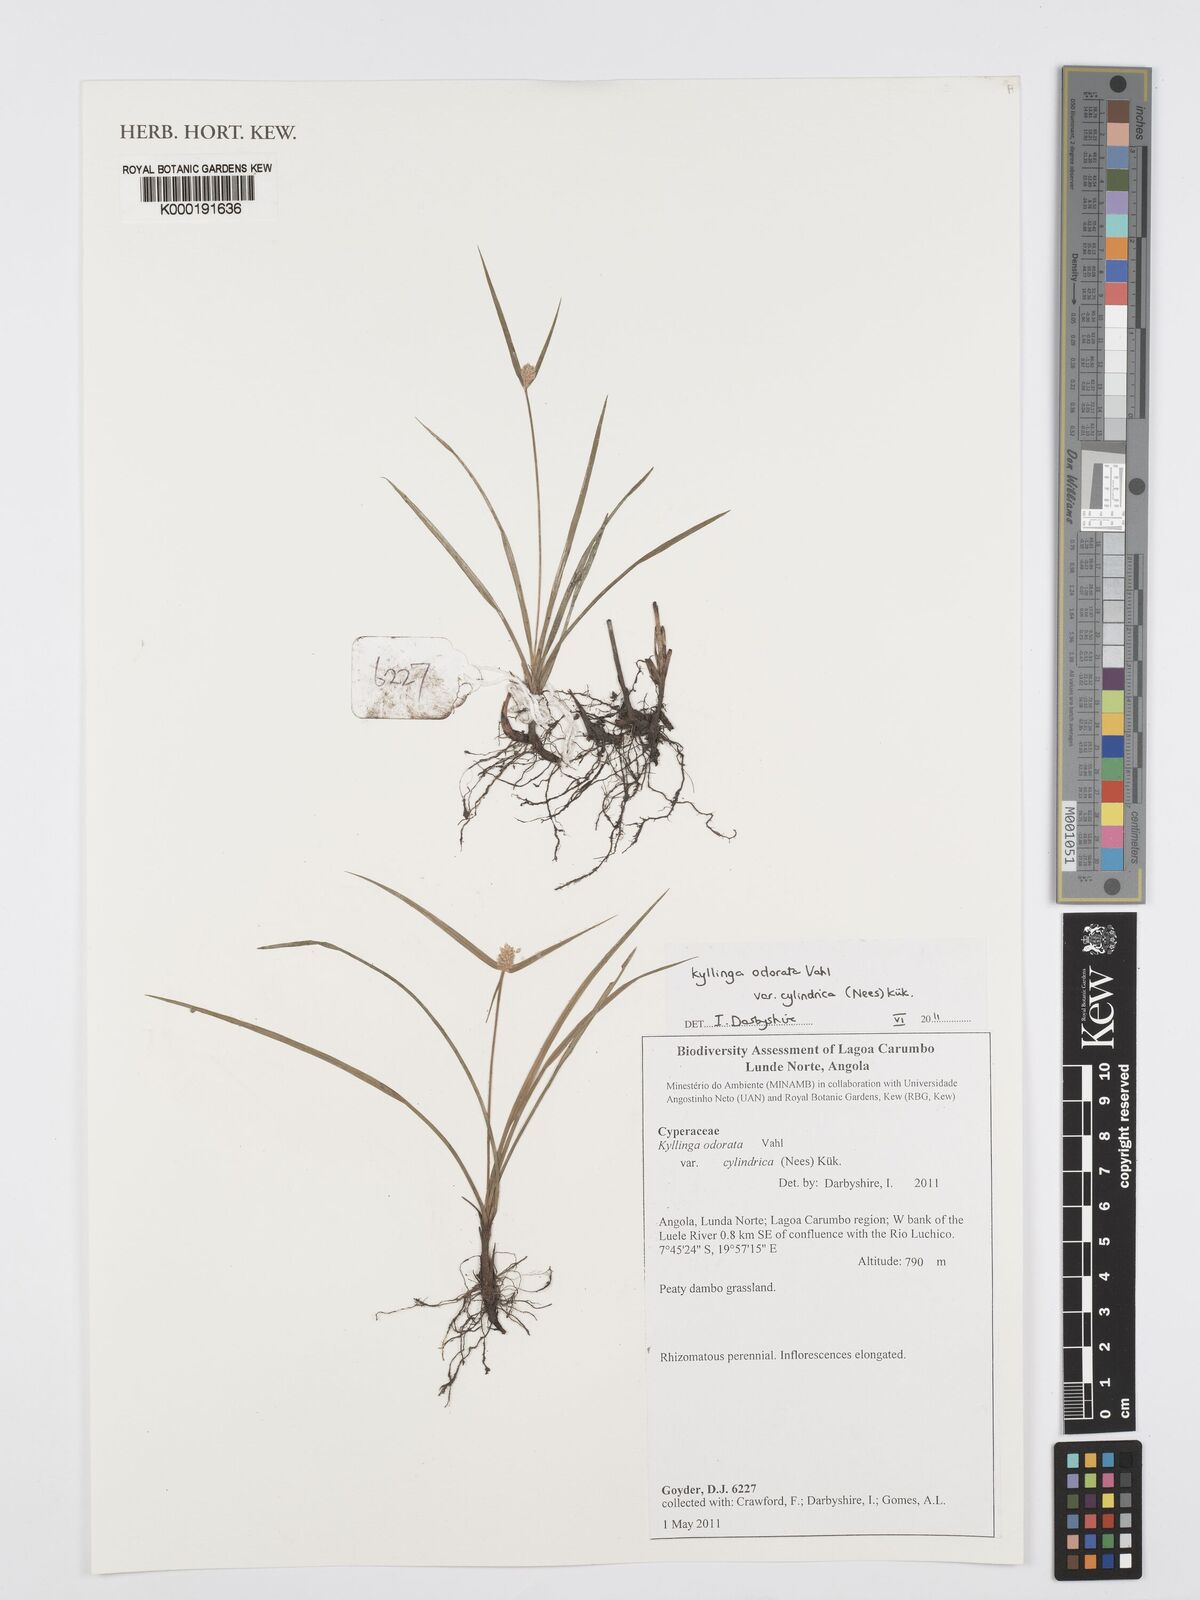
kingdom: Plantae
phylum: Tracheophyta
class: Liliopsida
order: Poales
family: Cyperaceae
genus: Cyperus
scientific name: Cyperus
